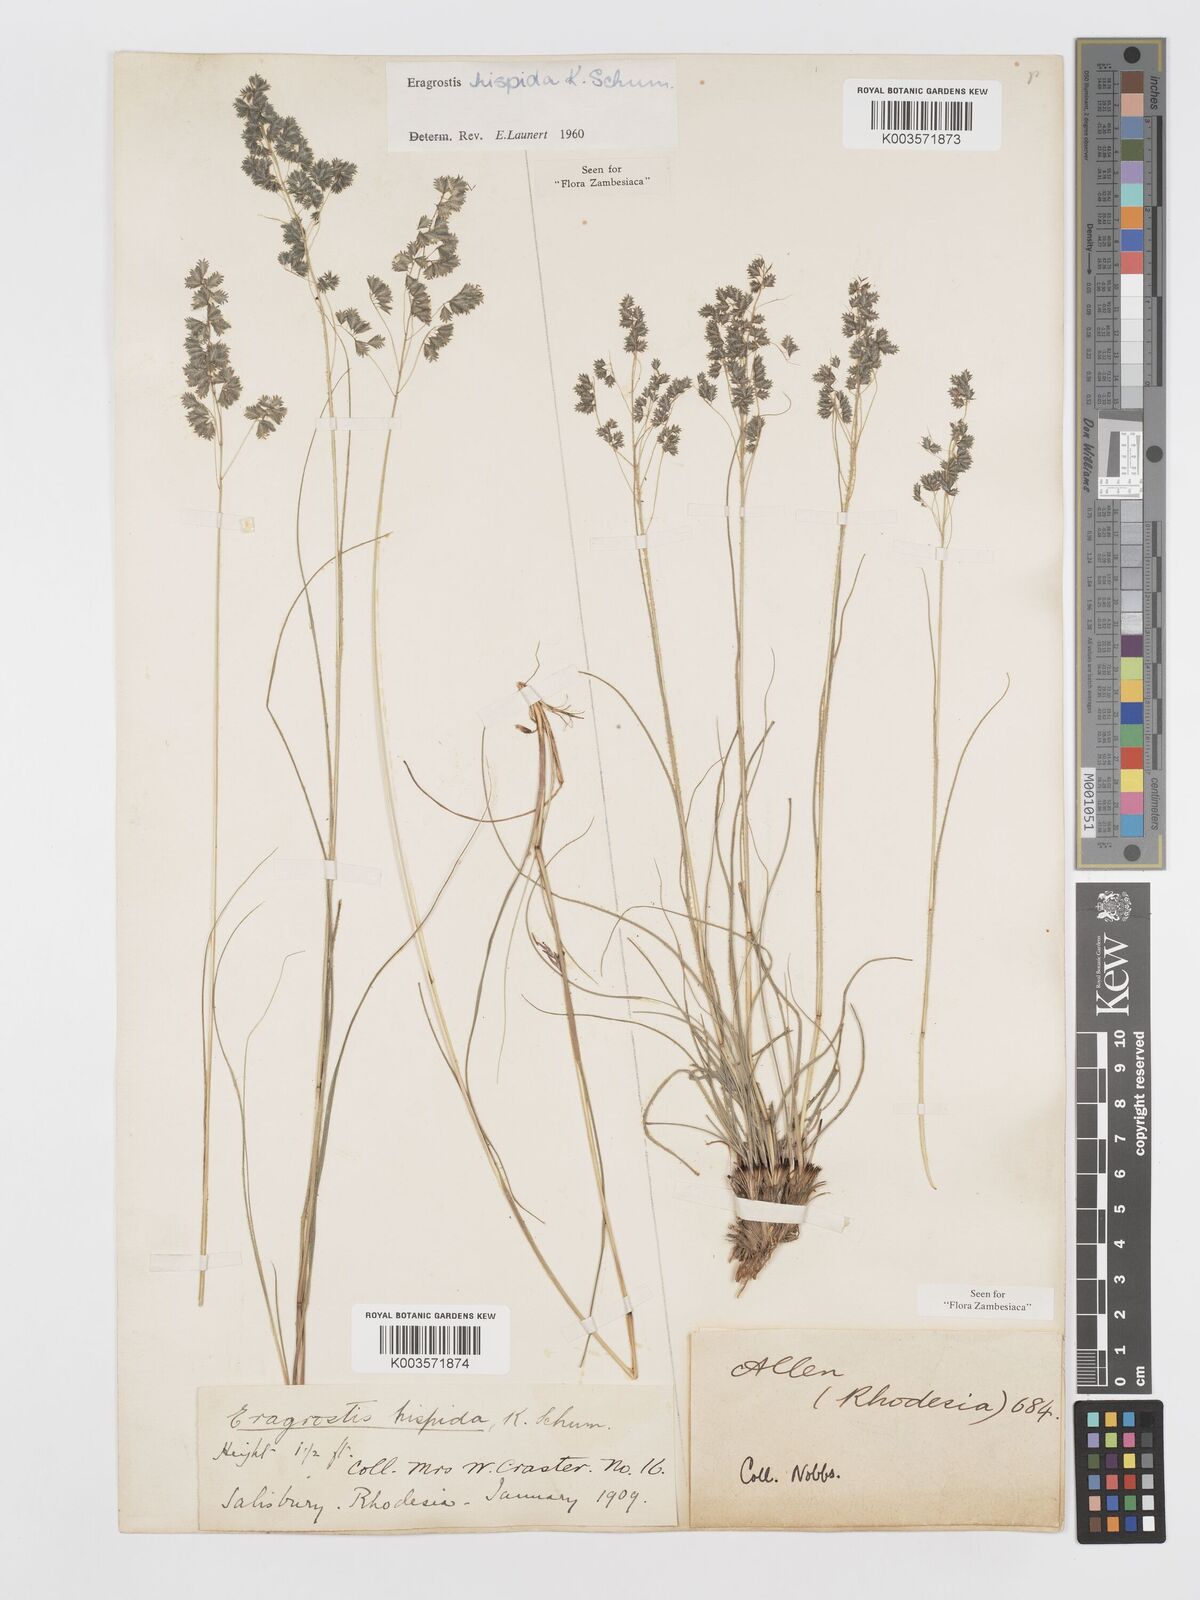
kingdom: Plantae
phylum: Tracheophyta
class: Liliopsida
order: Poales
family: Poaceae
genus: Eragrostis
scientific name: Eragrostis hispida
